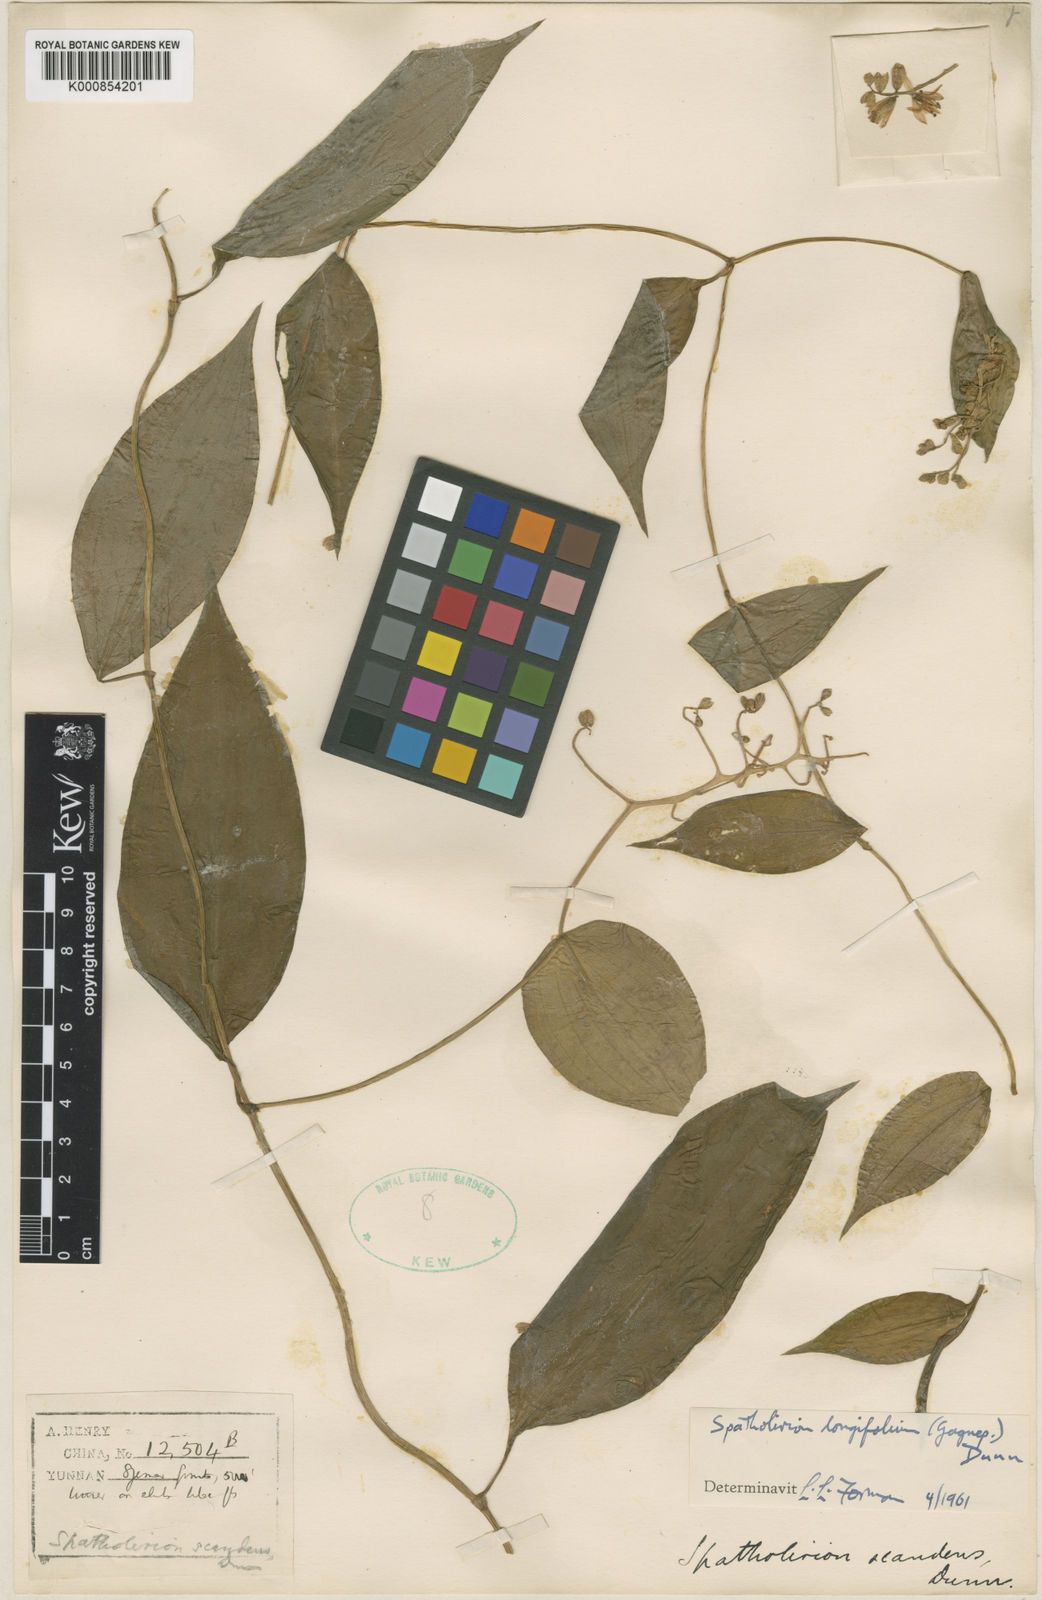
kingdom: Plantae
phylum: Tracheophyta
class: Liliopsida
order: Commelinales
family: Commelinaceae
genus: Spatholirion
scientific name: Spatholirion longifolium
